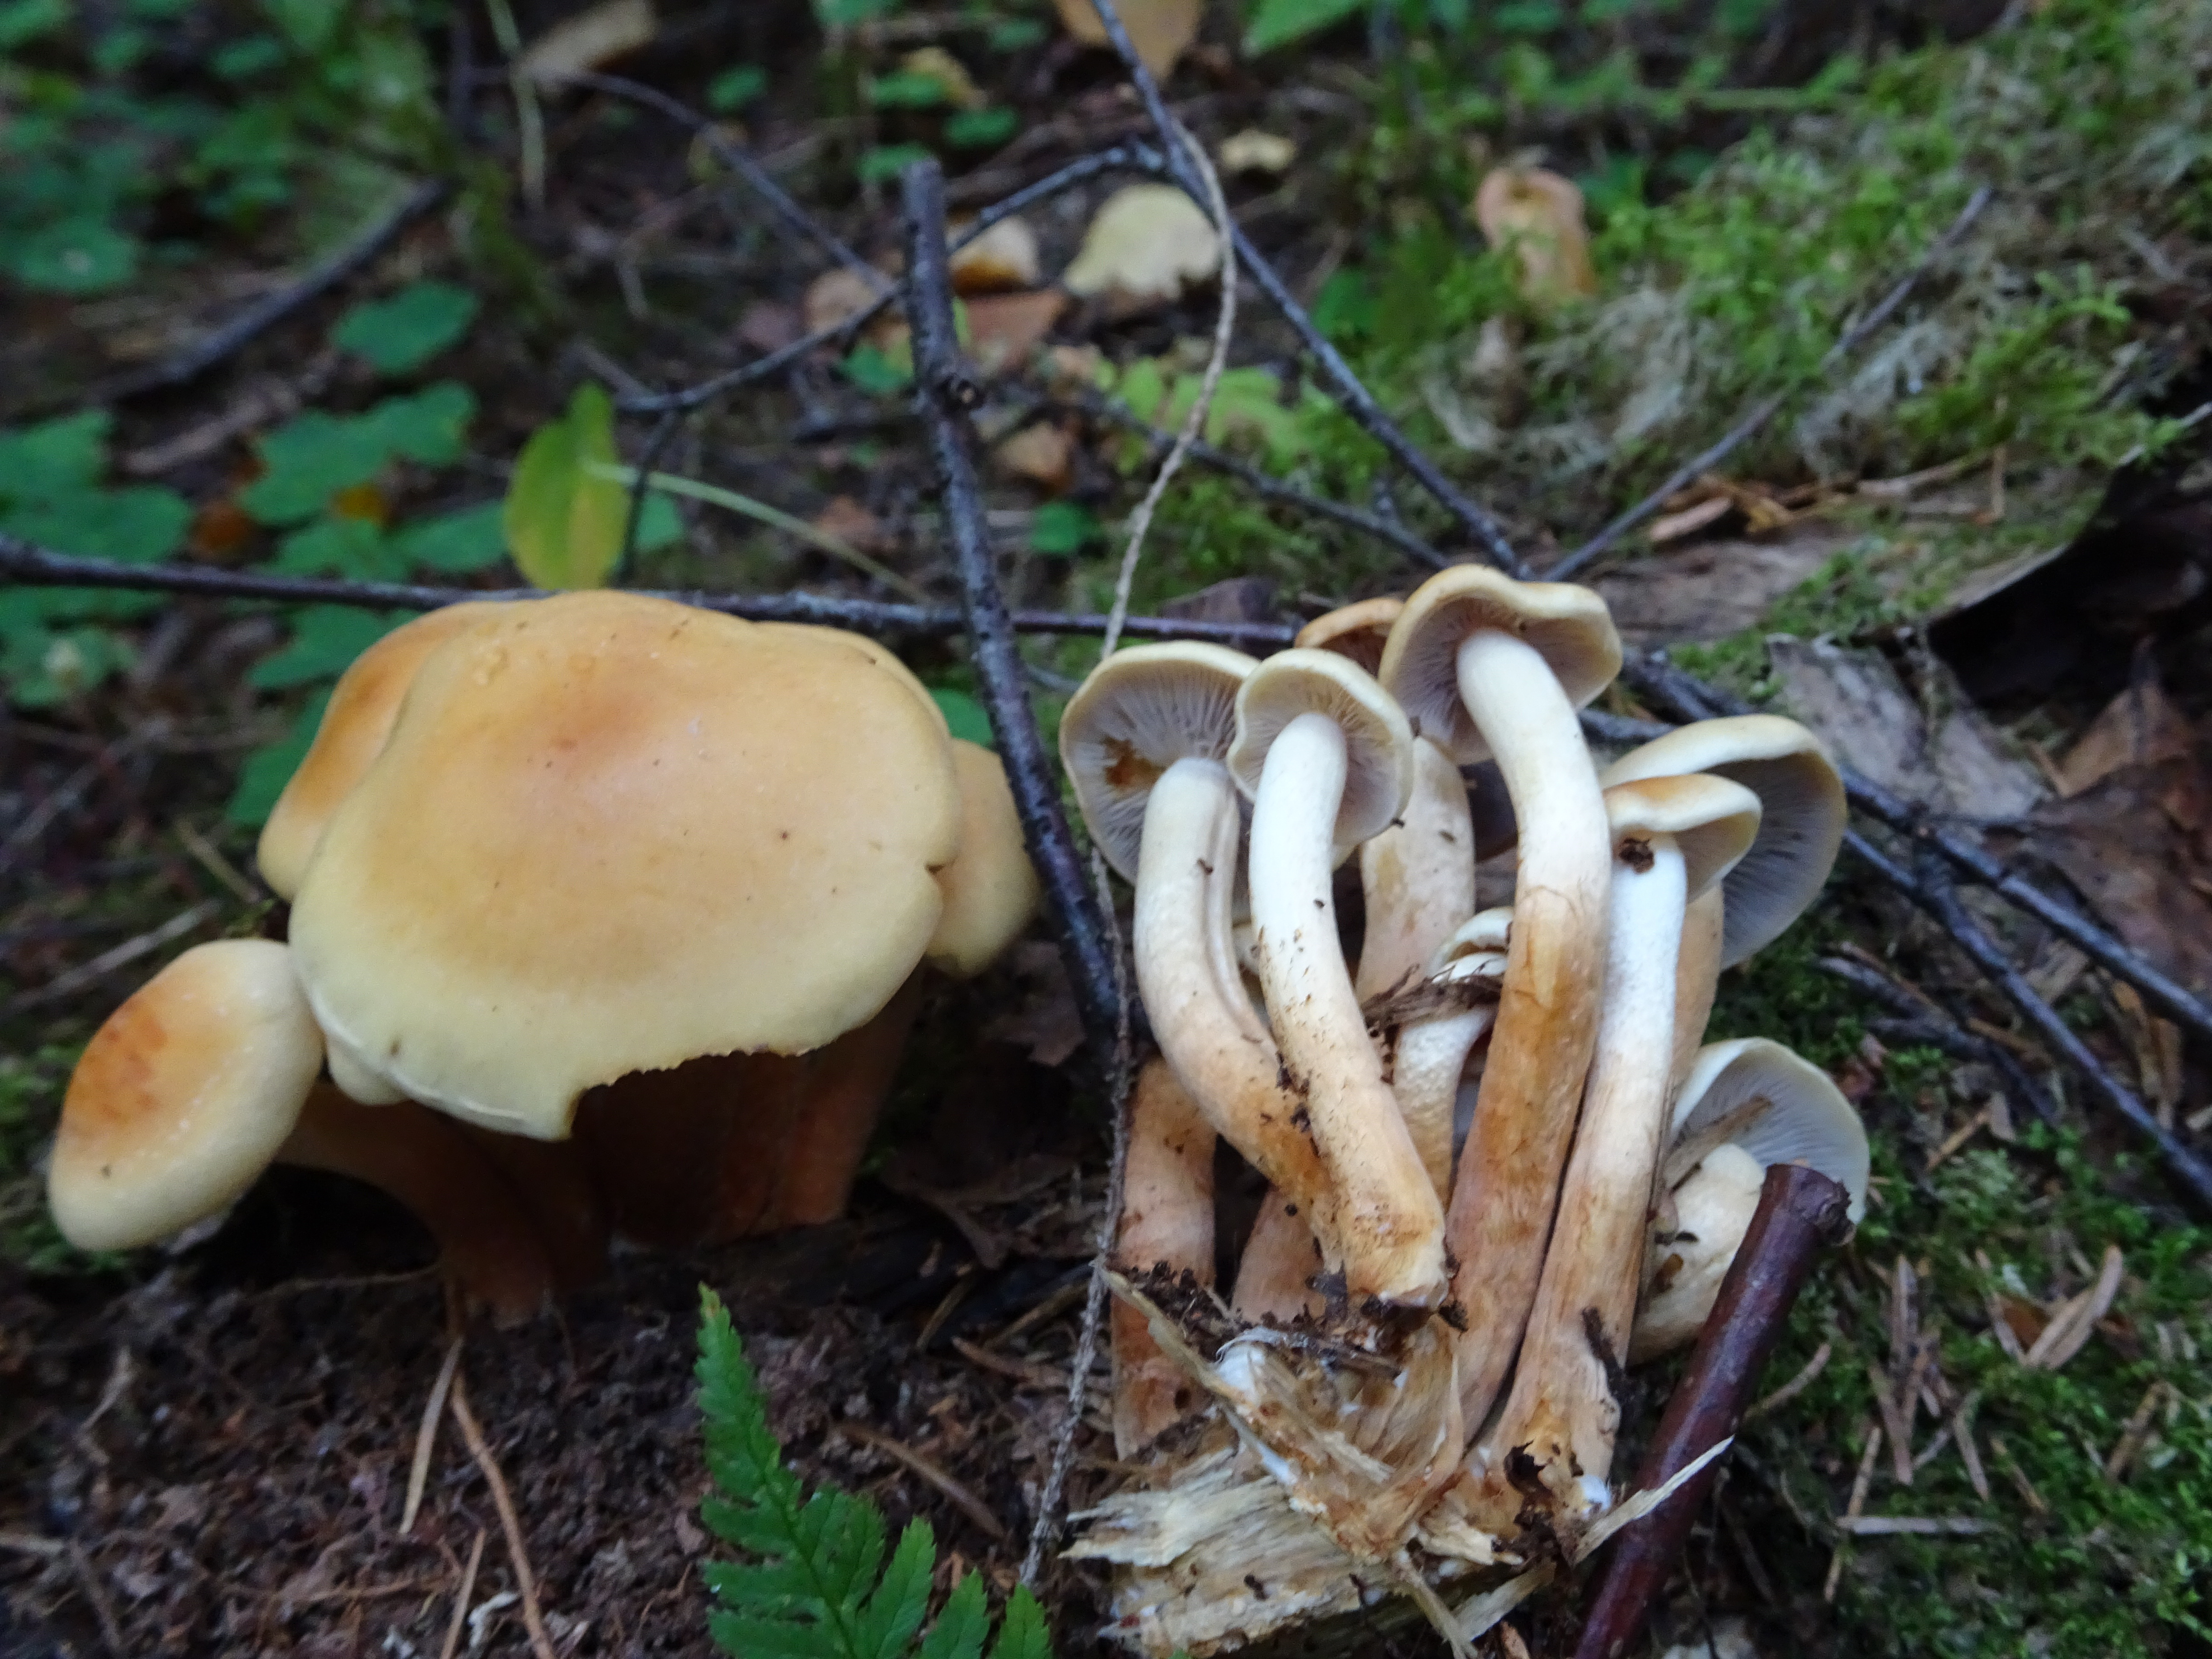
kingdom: Fungi
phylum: Basidiomycota
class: Agaricomycetes
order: Agaricales
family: Strophariaceae
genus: Hypholoma
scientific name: Hypholoma capnoides
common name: Conifer tuft
